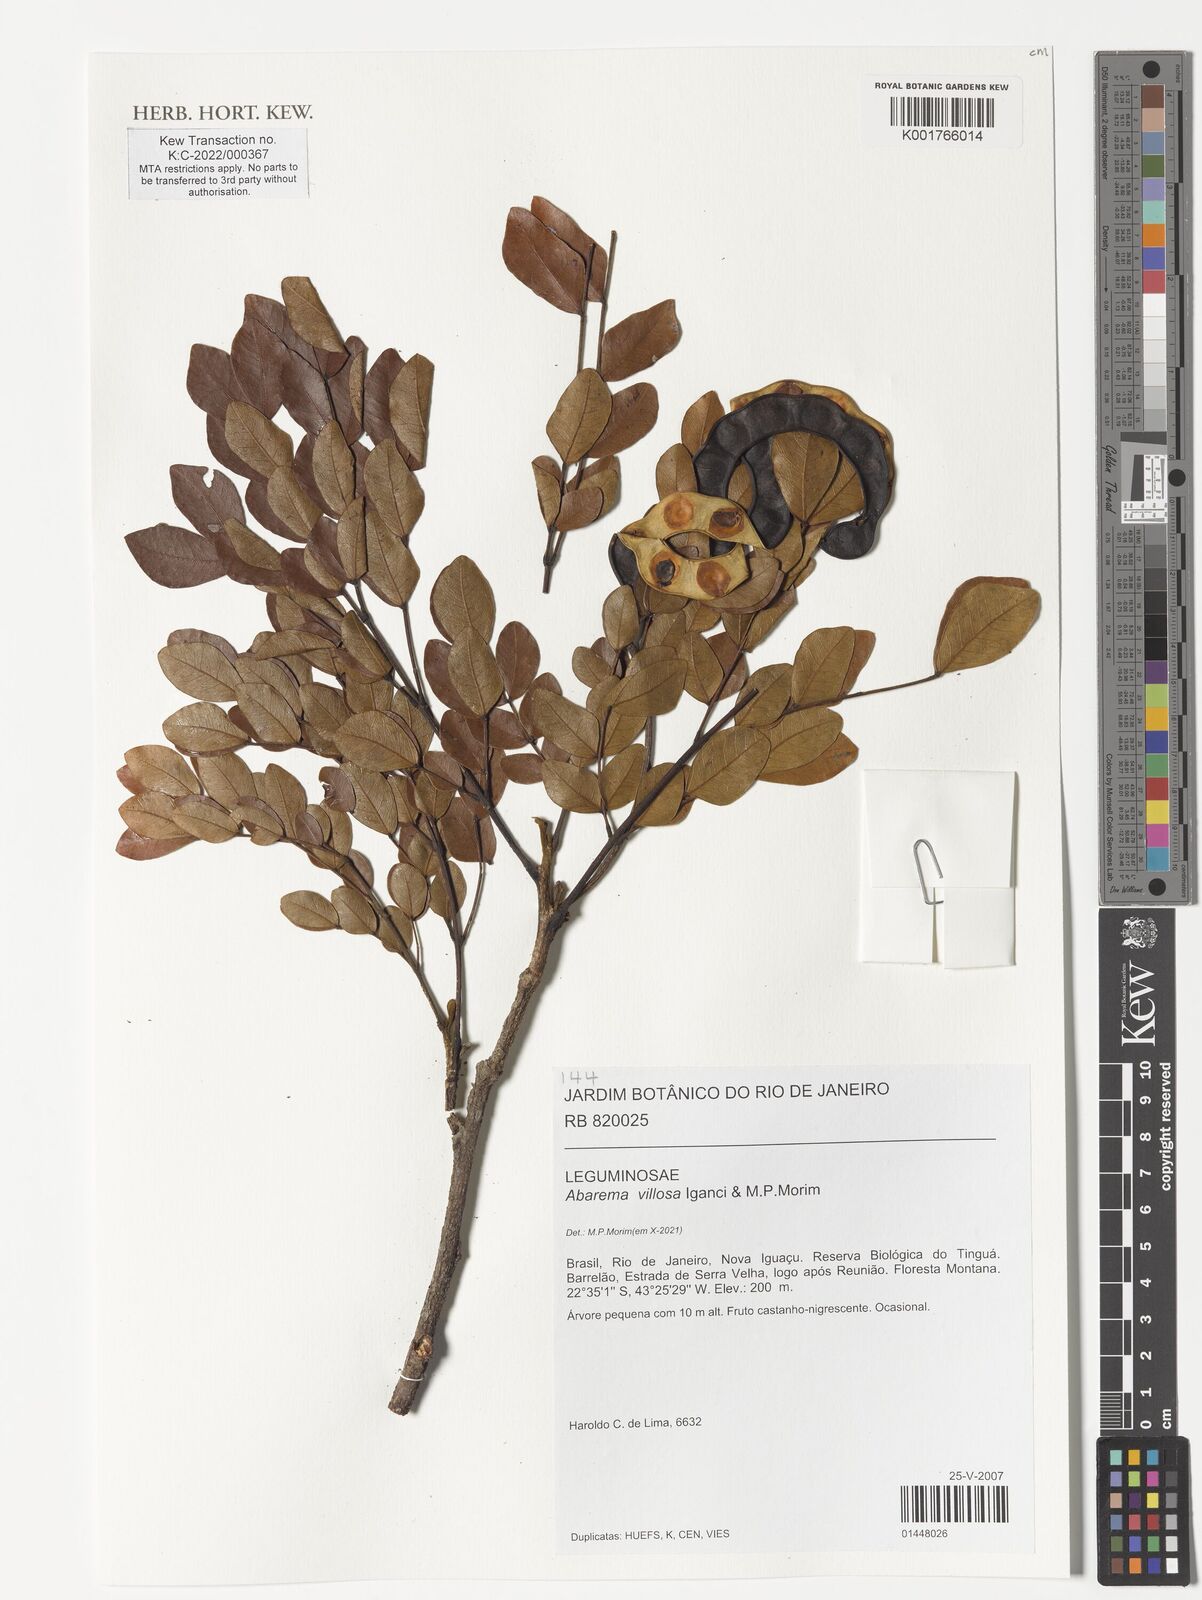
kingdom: Plantae
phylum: Tracheophyta
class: Magnoliopsida
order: Fabales
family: Fabaceae
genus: Jupunba
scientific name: Jupunba villosa
